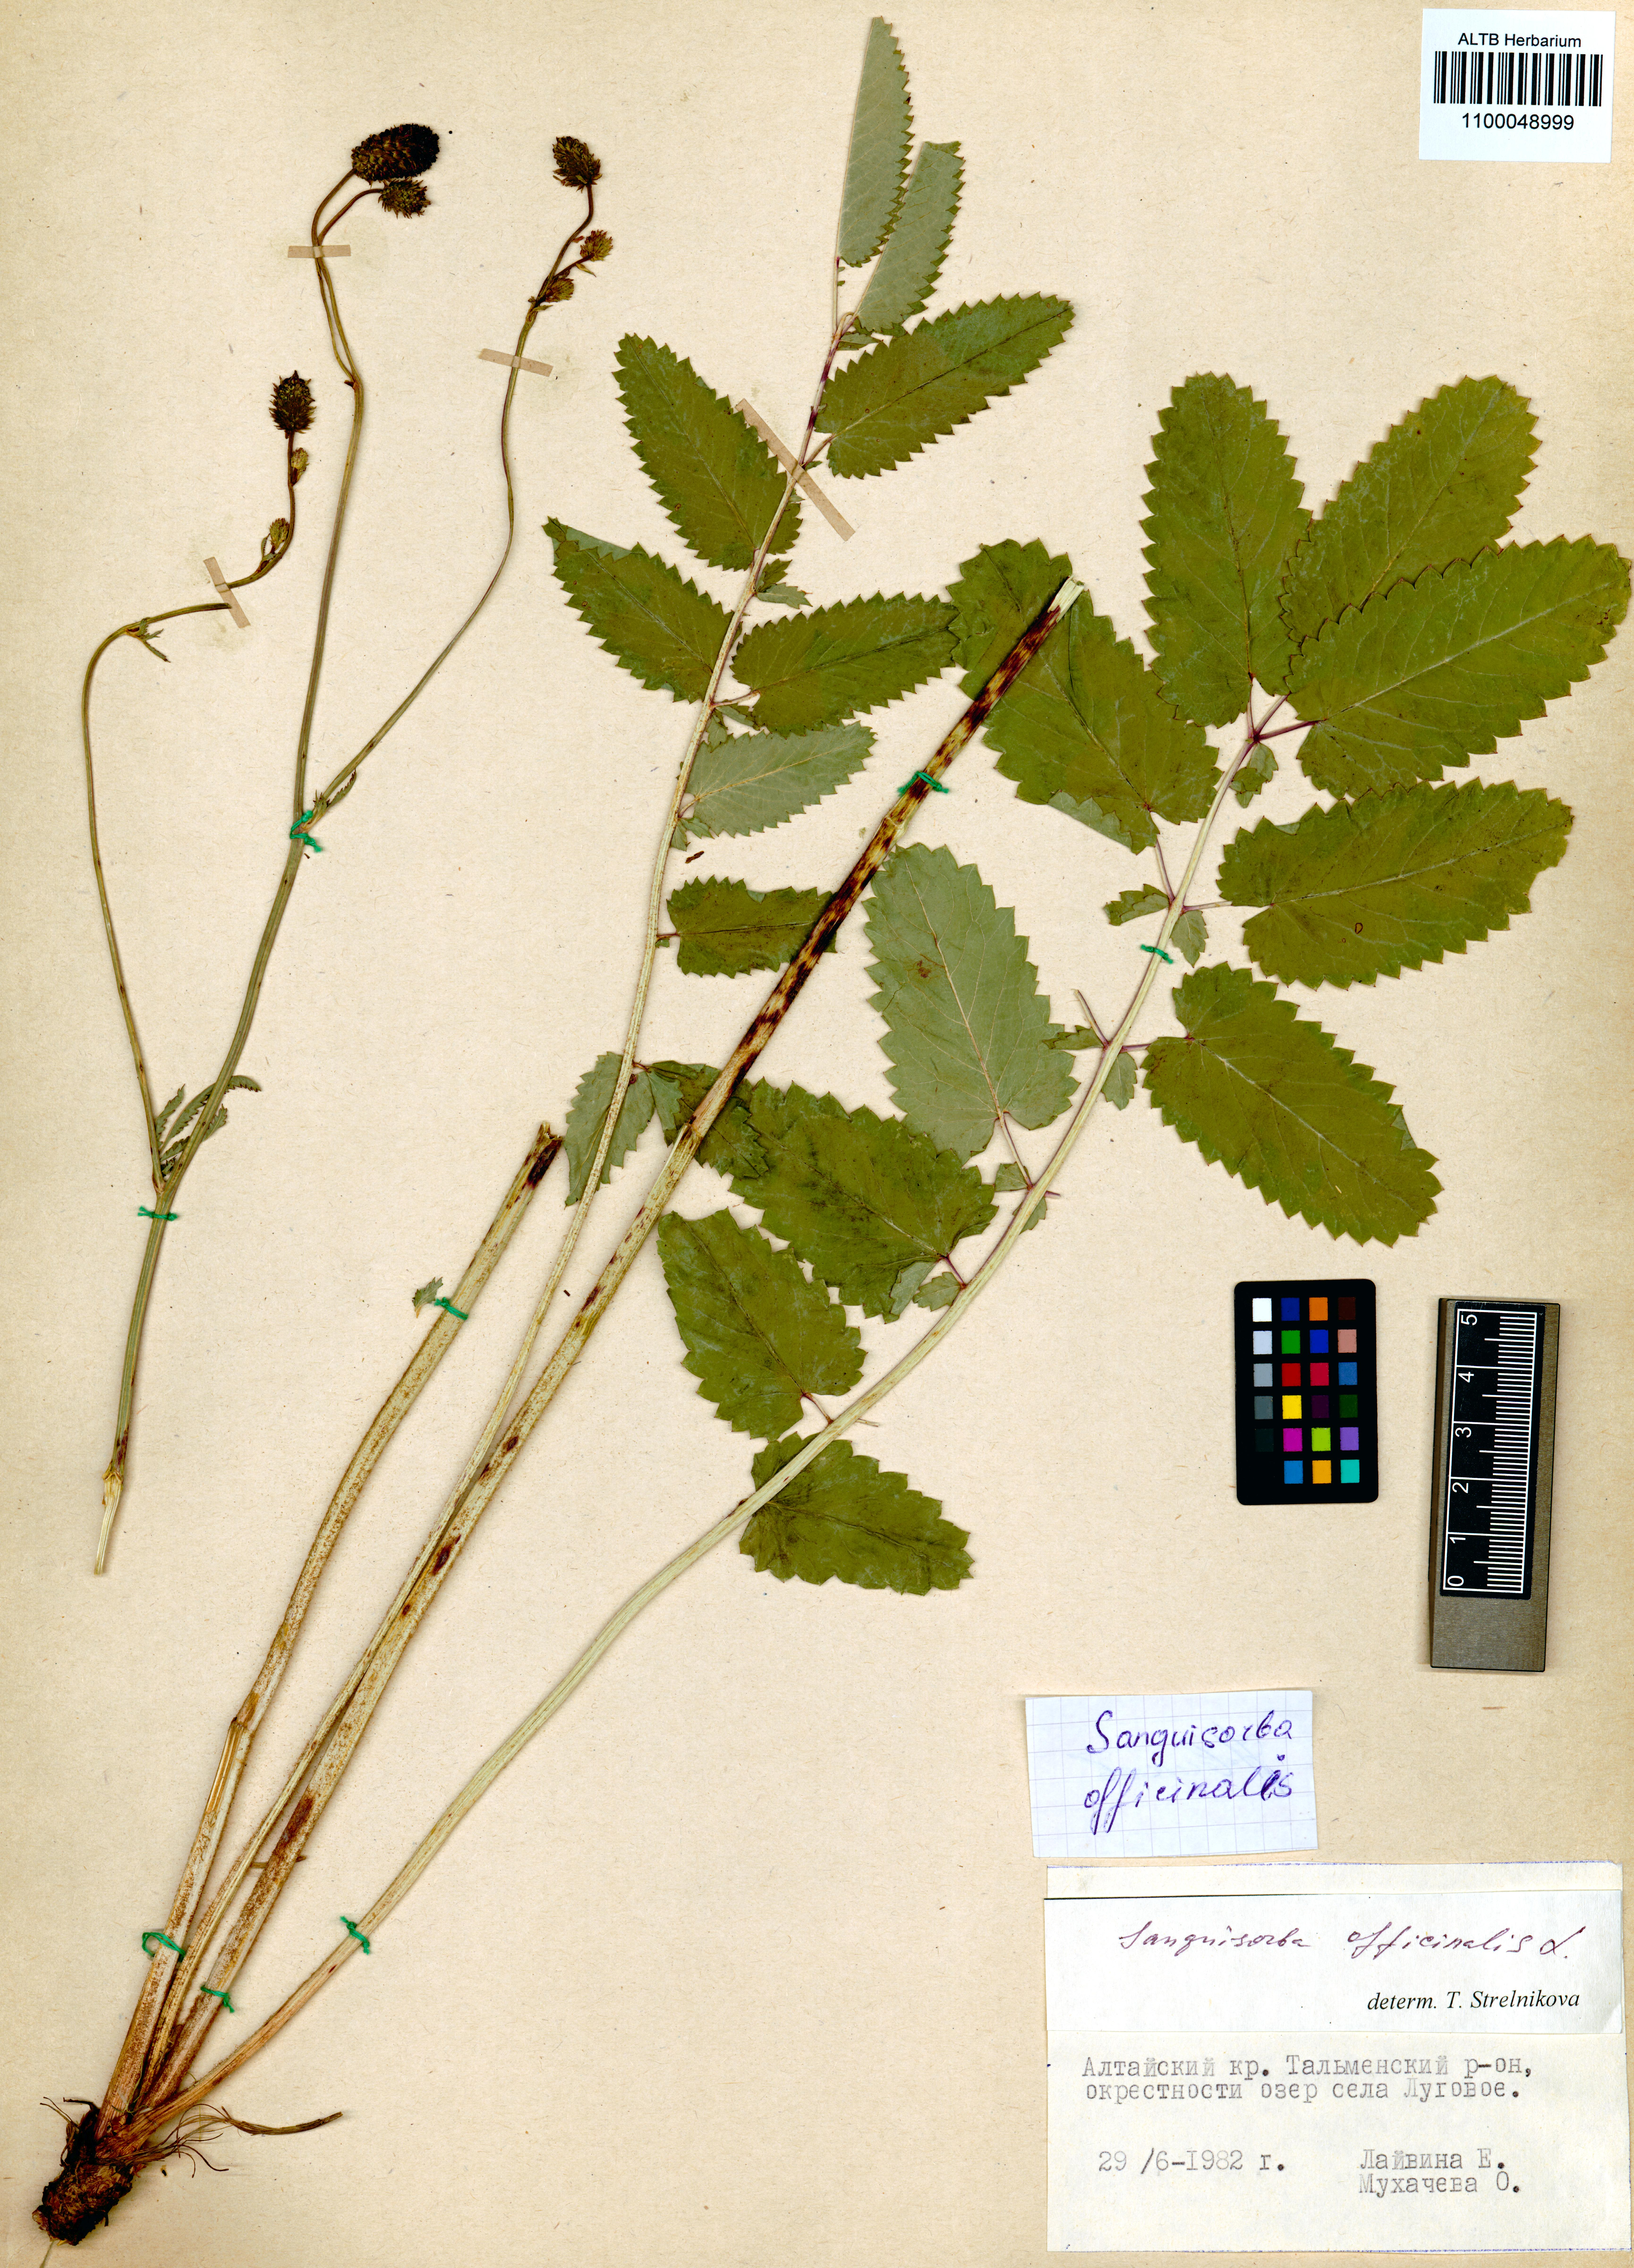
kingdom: Plantae
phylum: Tracheophyta
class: Magnoliopsida
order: Rosales
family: Rosaceae
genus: Sanguisorba
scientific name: Sanguisorba officinalis
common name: Great burnet
